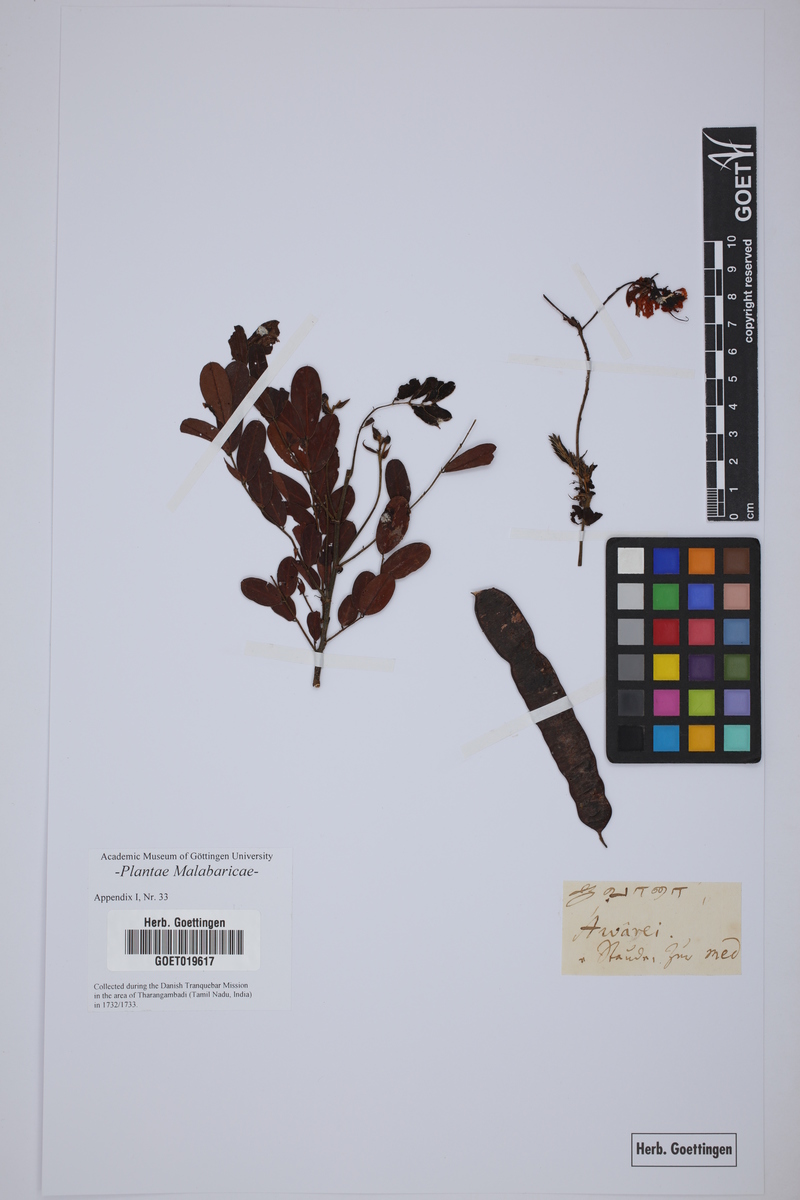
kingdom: Plantae
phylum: Tracheophyta
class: Magnoliopsida
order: Fabales
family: Fabaceae
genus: Senna
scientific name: Senna auriculata
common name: Tanner's cassia
